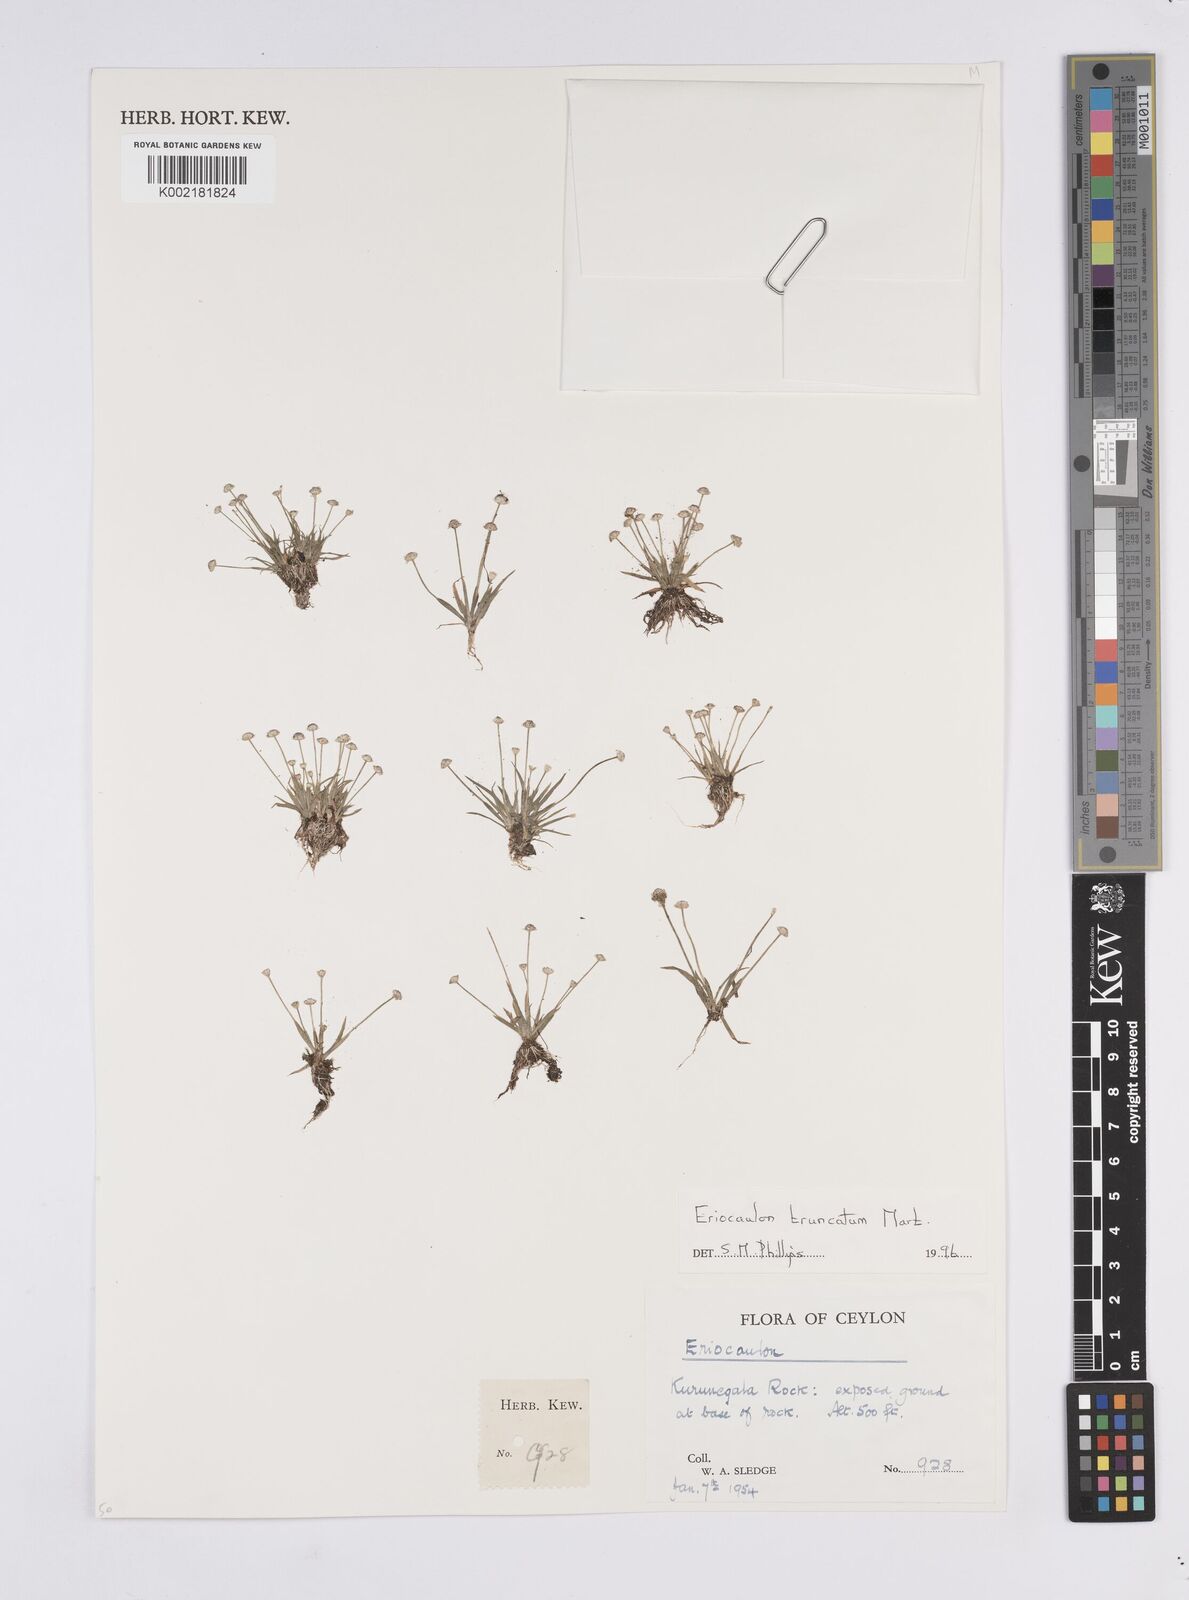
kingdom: Plantae
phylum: Tracheophyta
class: Liliopsida
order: Poales
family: Eriocaulaceae
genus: Eriocaulon
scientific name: Eriocaulon truncatum
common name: Short pipe-wort
